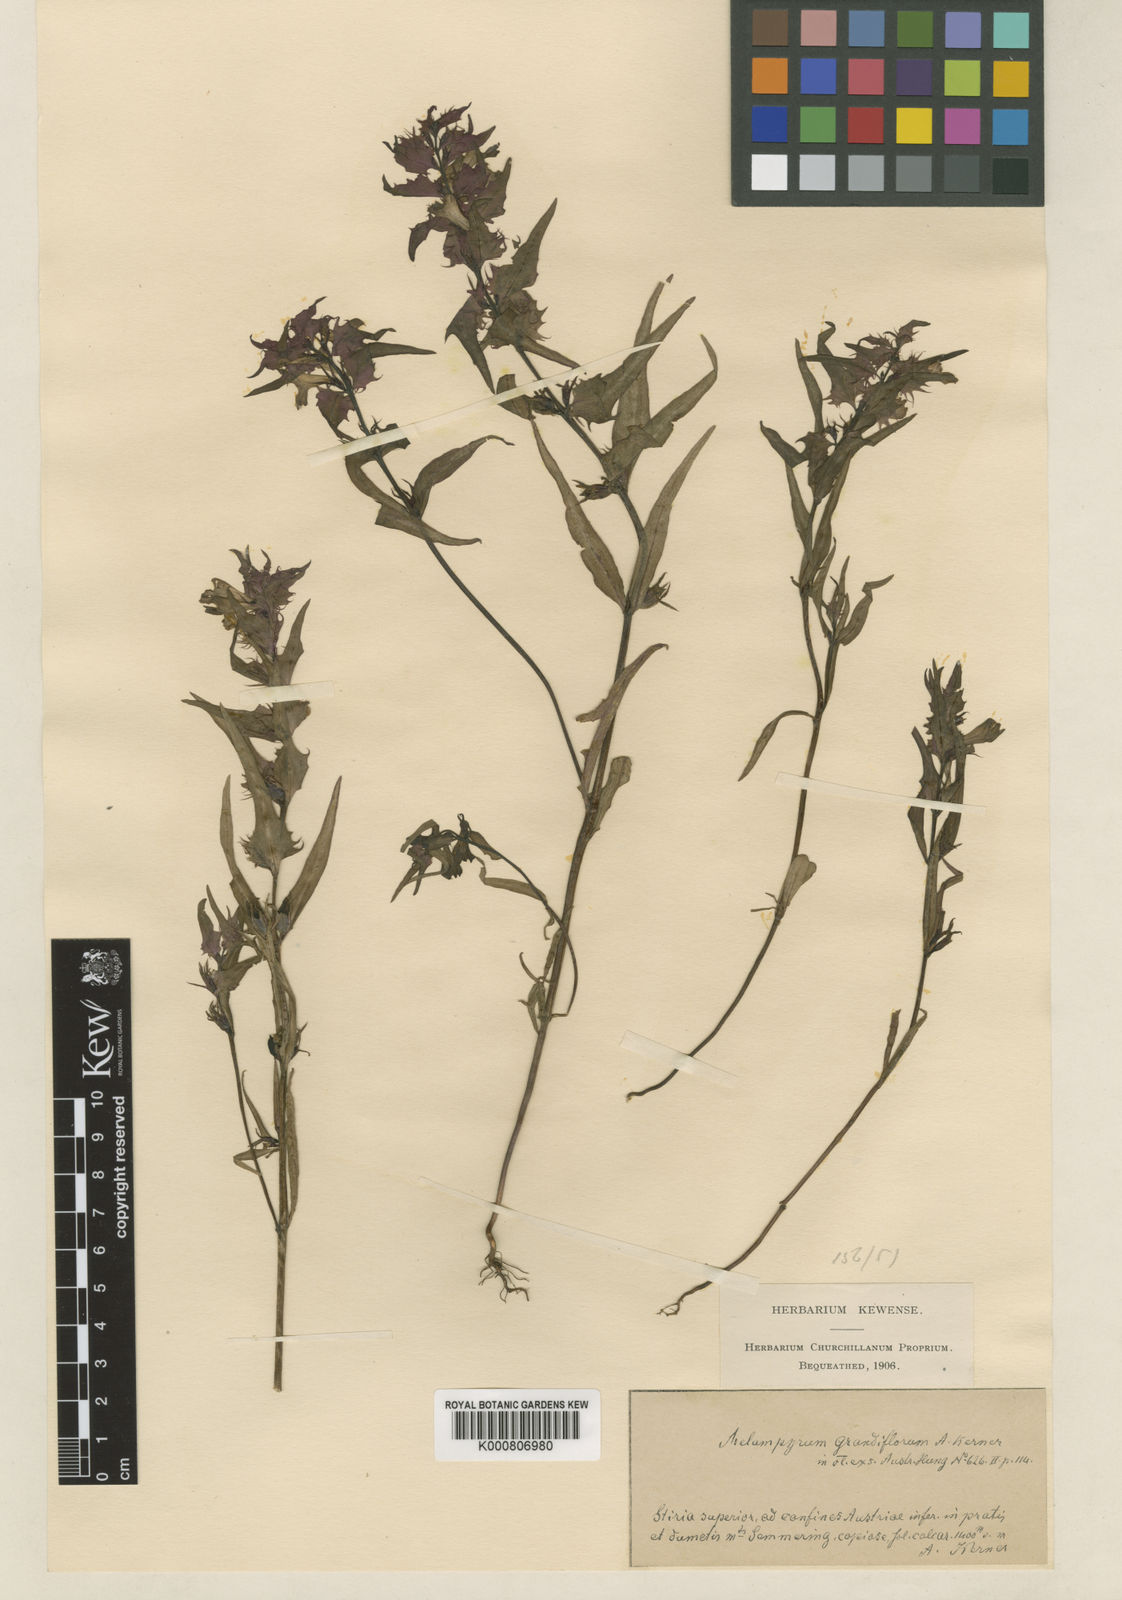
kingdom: Plantae
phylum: Tracheophyta
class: Magnoliopsida
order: Lamiales
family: Orobanchaceae
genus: Melampyrum
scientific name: Melampyrum subalpinum
